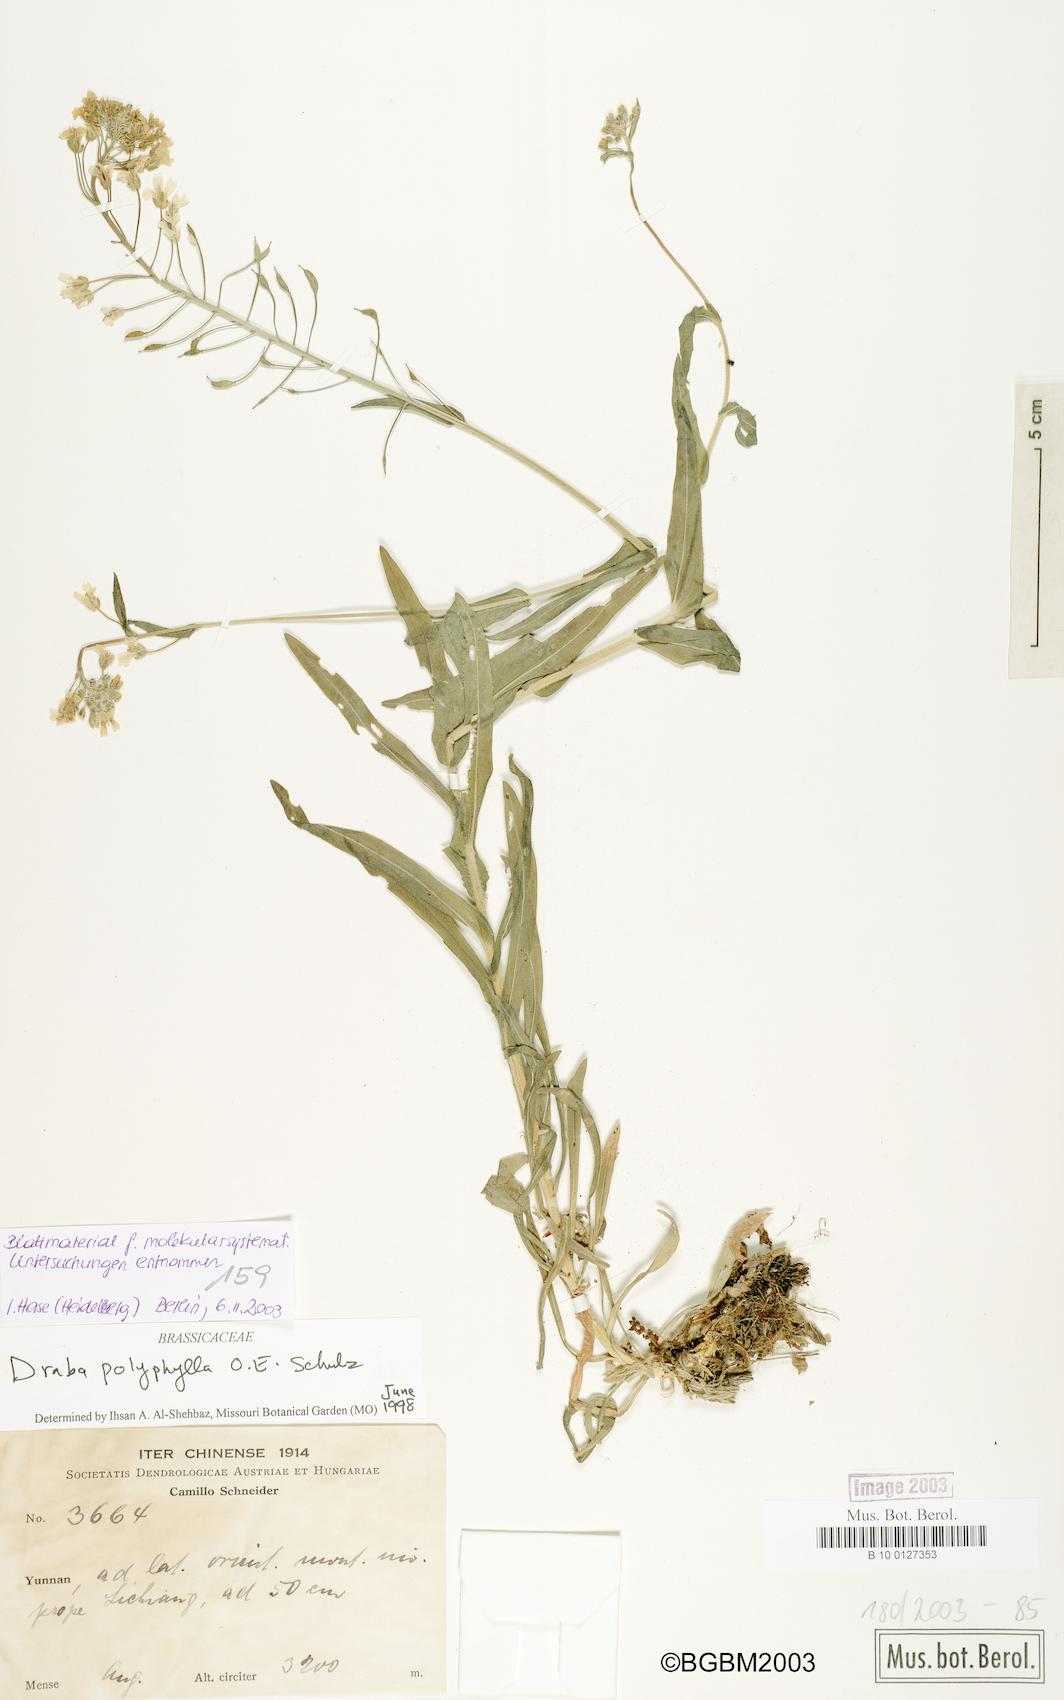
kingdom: Plantae
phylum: Tracheophyta
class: Magnoliopsida
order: Brassicales
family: Brassicaceae
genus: Draba
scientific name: Draba amplexicaulis
